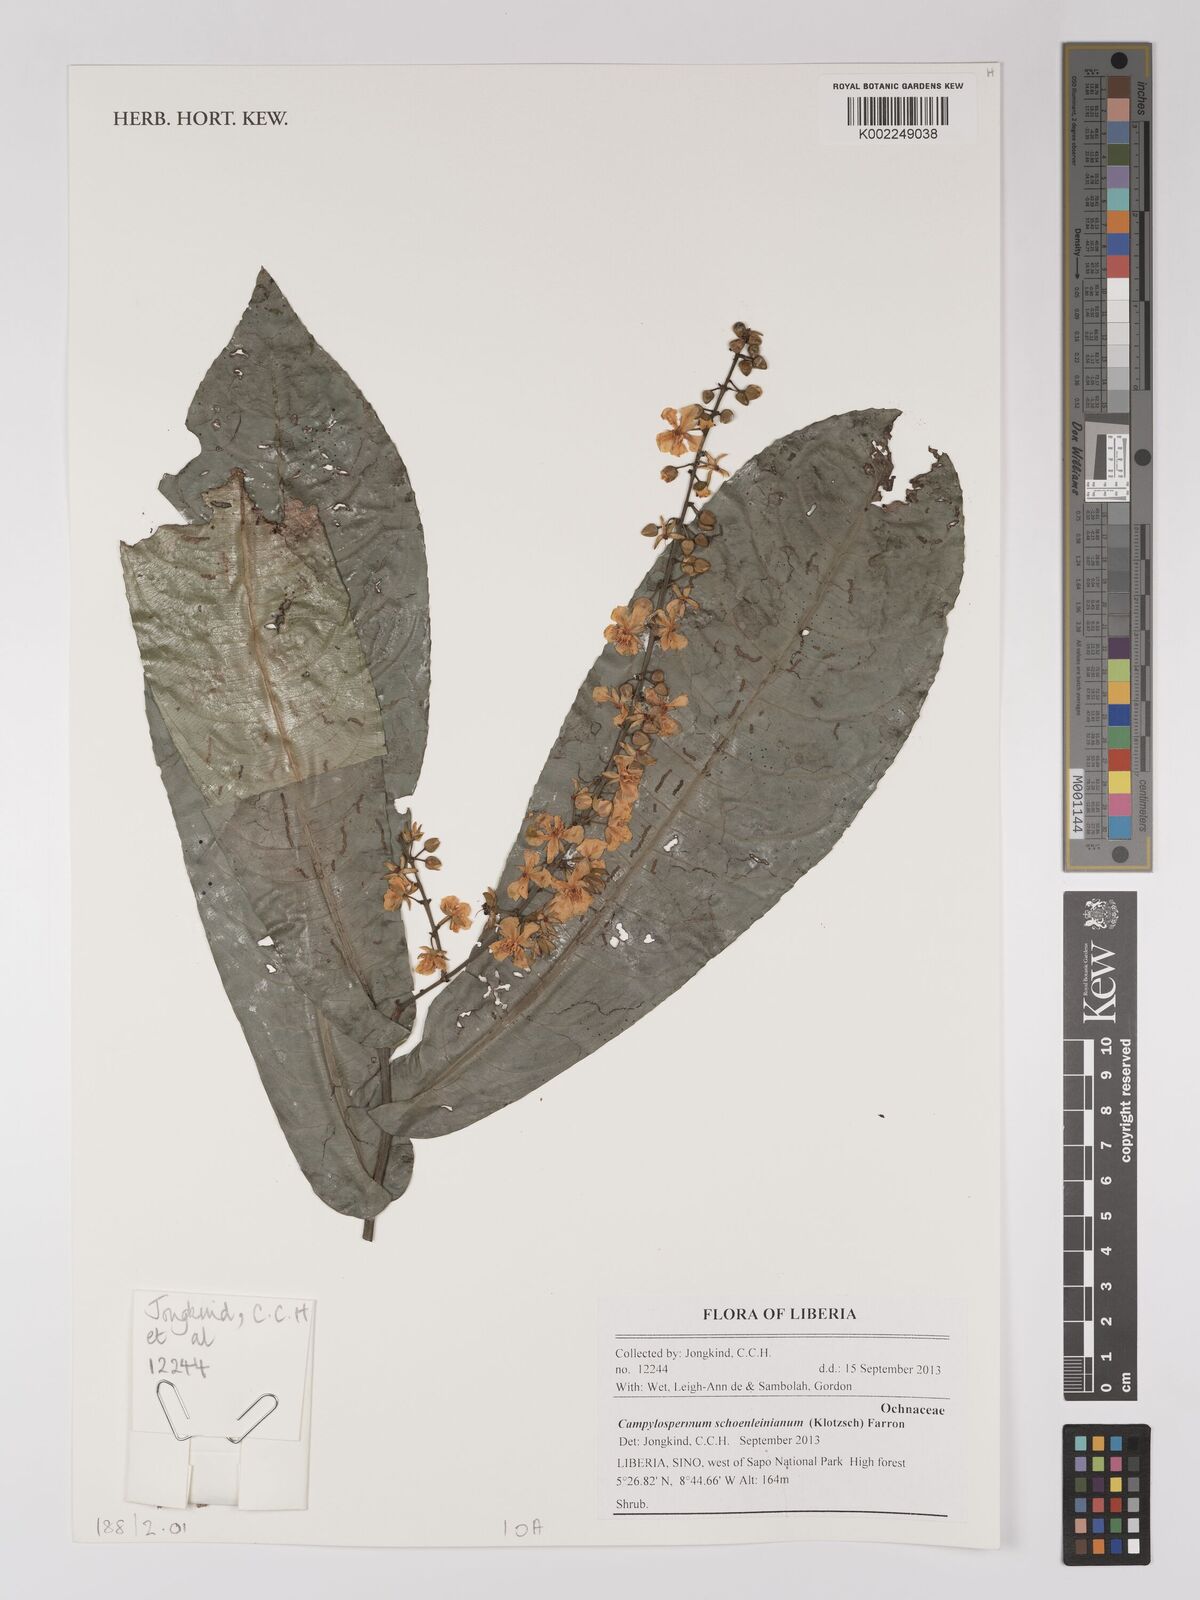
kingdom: Plantae
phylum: Tracheophyta
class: Magnoliopsida
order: Malpighiales
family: Ochnaceae
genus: Campylospermum
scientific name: Campylospermum schoenleinianum
